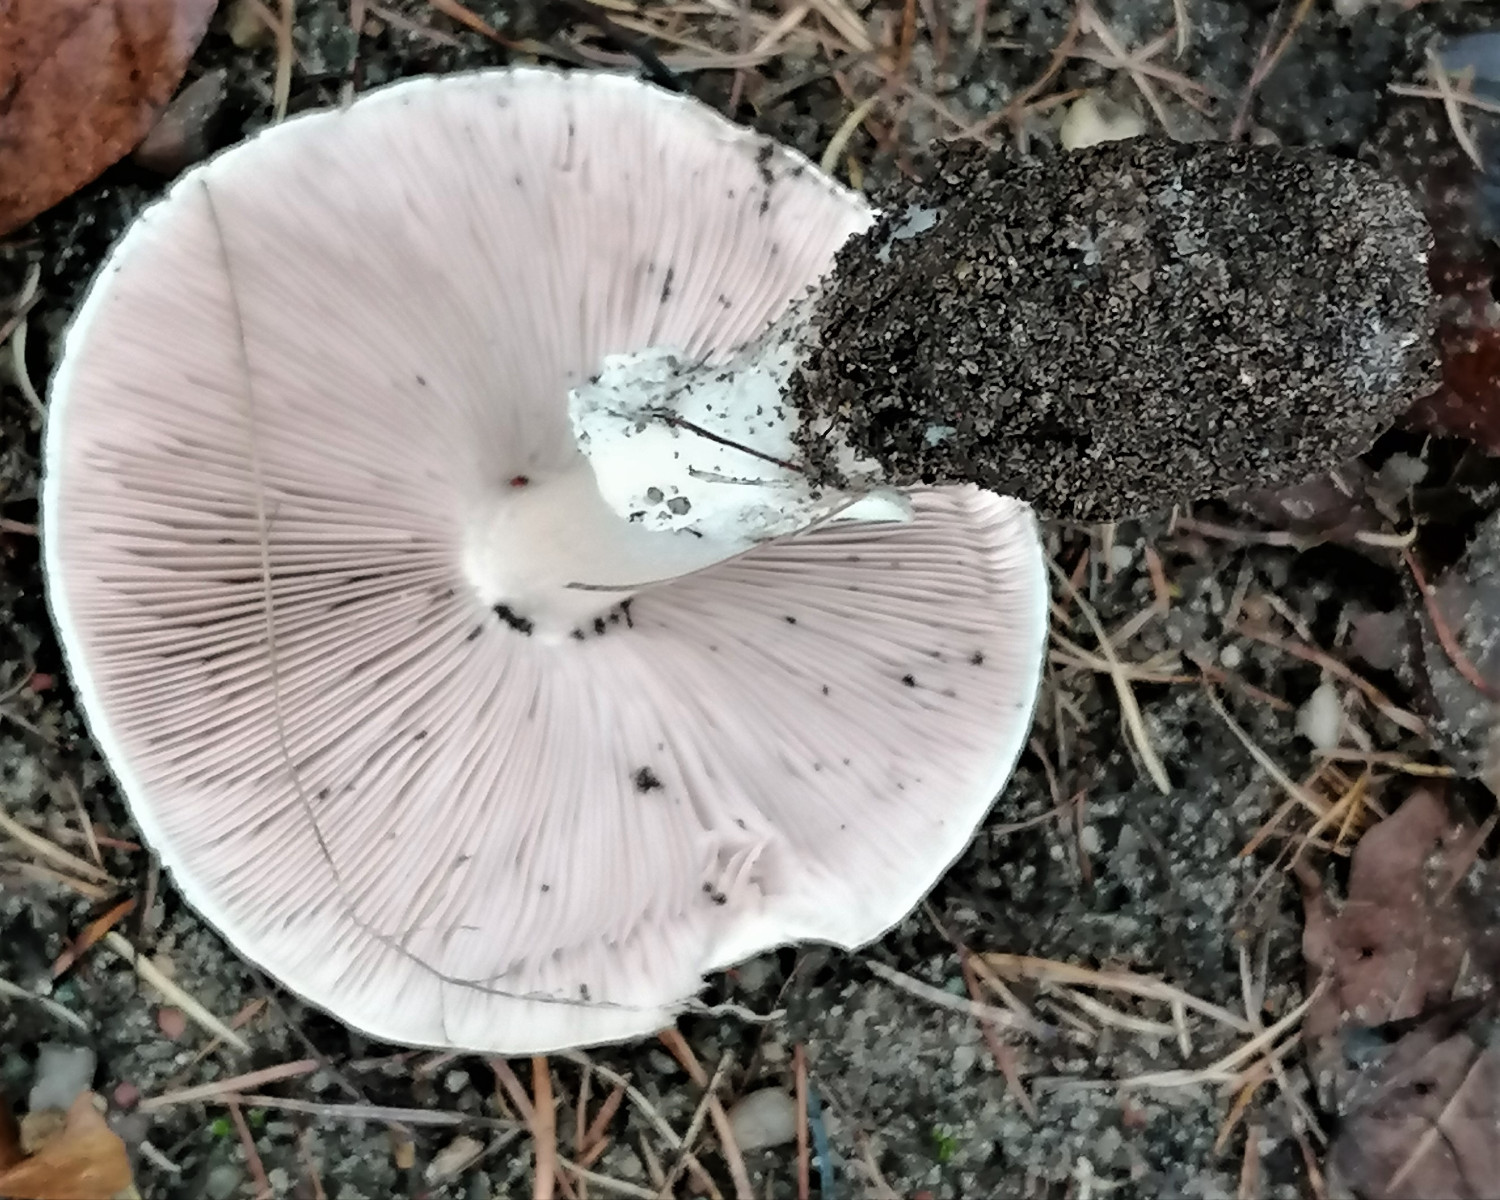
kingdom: Fungi
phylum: Basidiomycota
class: Agaricomycetes
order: Agaricales
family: Agaricaceae
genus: Agaricus
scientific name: Agaricus
